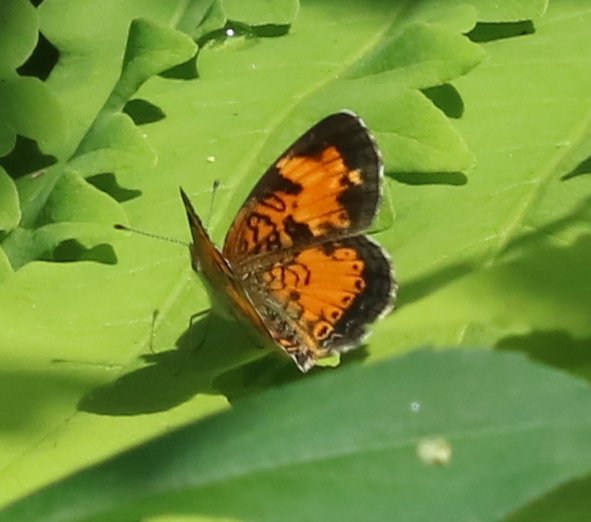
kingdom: Animalia
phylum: Arthropoda
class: Insecta
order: Lepidoptera
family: Nymphalidae
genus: Phyciodes
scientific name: Phyciodes
